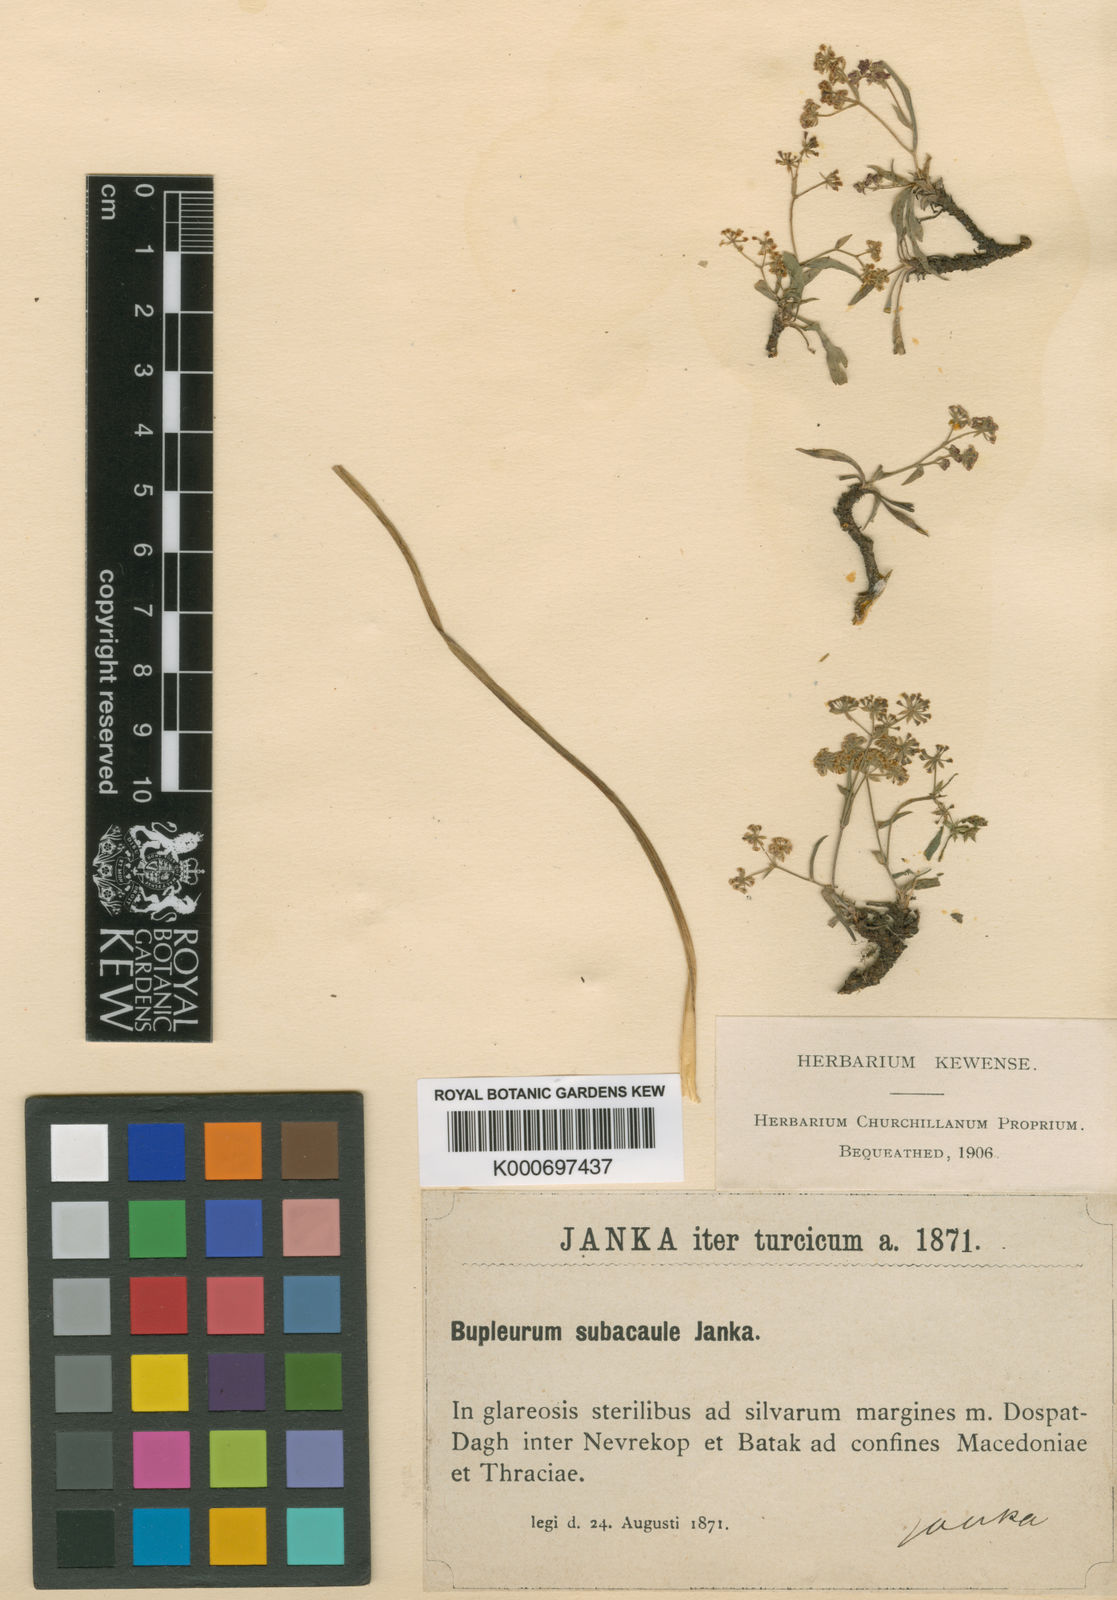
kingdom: Plantae
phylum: Tracheophyta
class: Magnoliopsida
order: Apiales
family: Apiaceae
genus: Bupleurum
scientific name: Bupleurum falcatum
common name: Sickle-leaved hare's-ear
